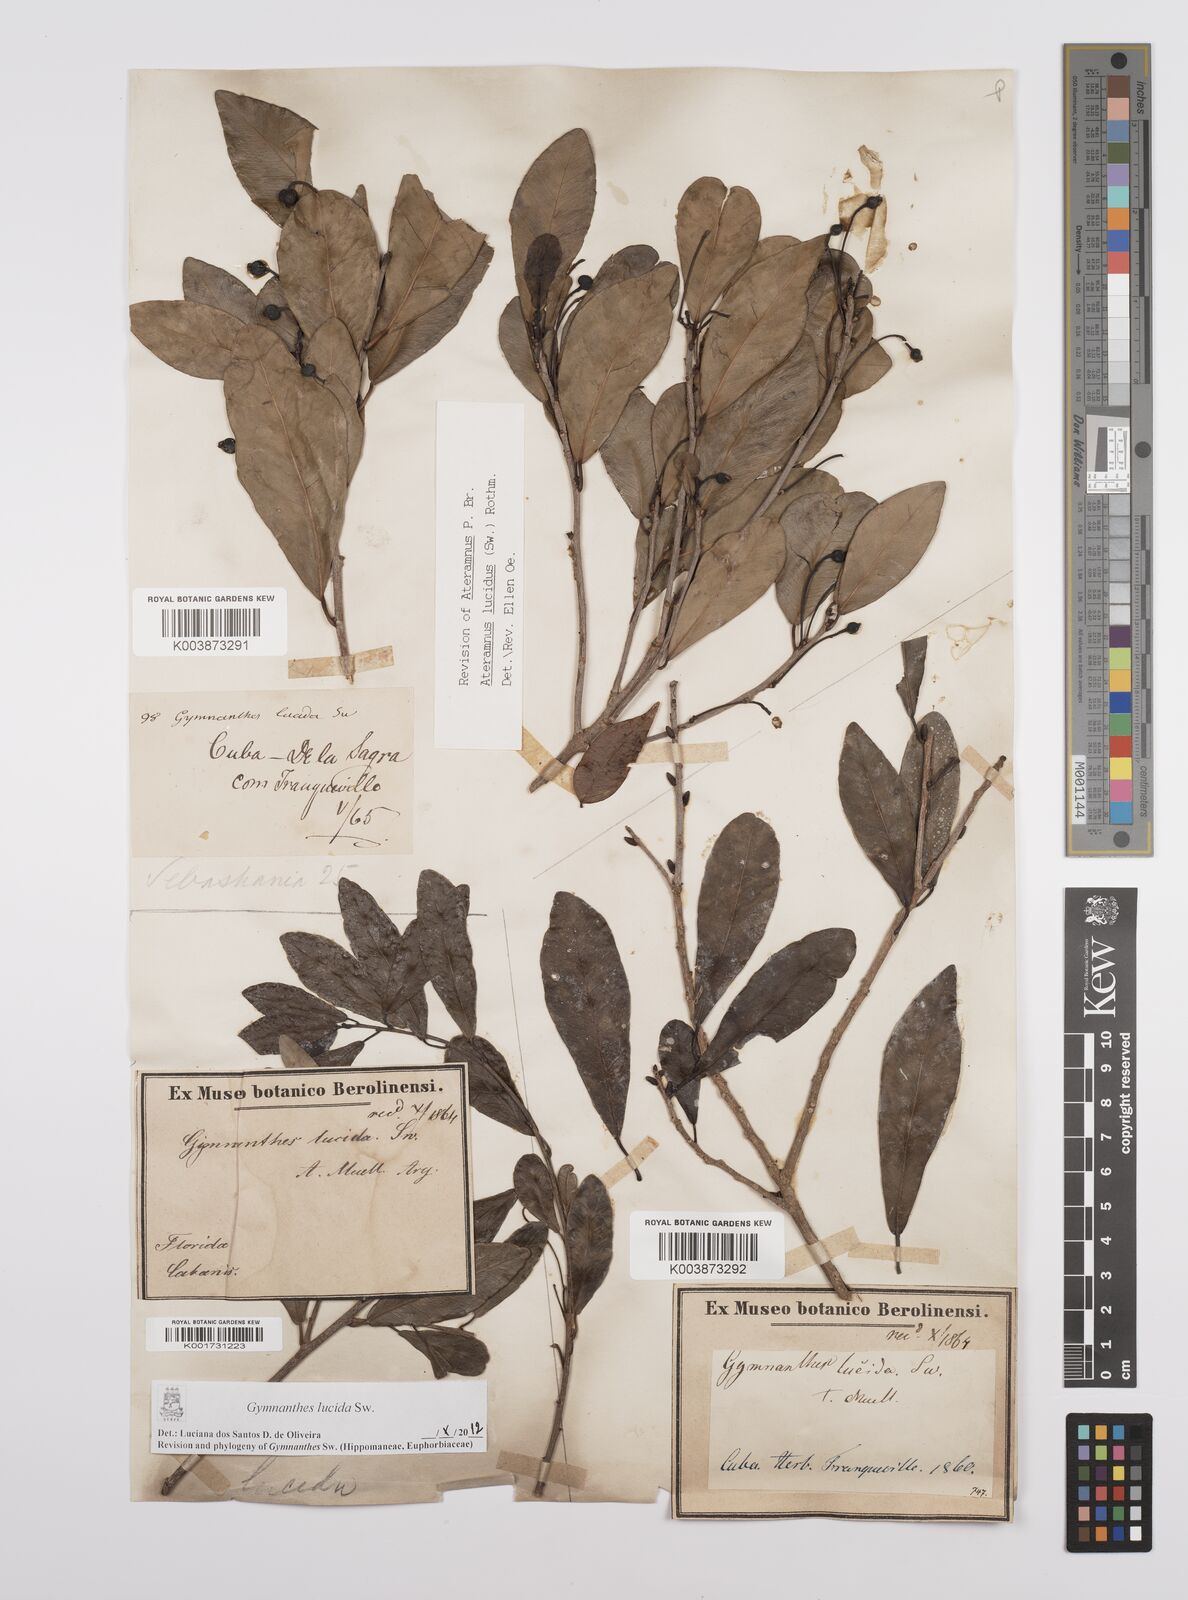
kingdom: Plantae
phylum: Tracheophyta
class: Magnoliopsida
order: Malpighiales
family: Euphorbiaceae
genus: Gymnanthes
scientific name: Gymnanthes lucida
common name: Oysterwood
